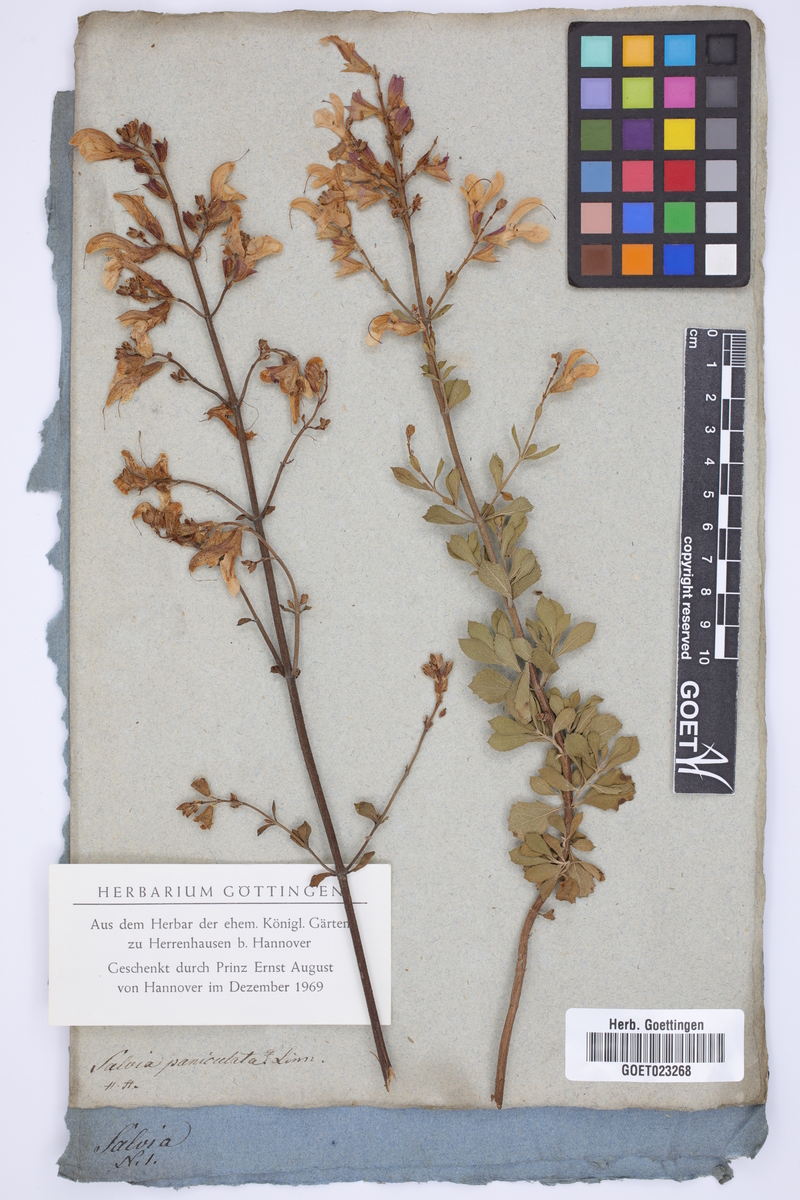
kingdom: Plantae
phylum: Tracheophyta
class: Magnoliopsida
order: Lamiales
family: Lamiaceae
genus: Salvia
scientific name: Salvia chamelaeagnea
